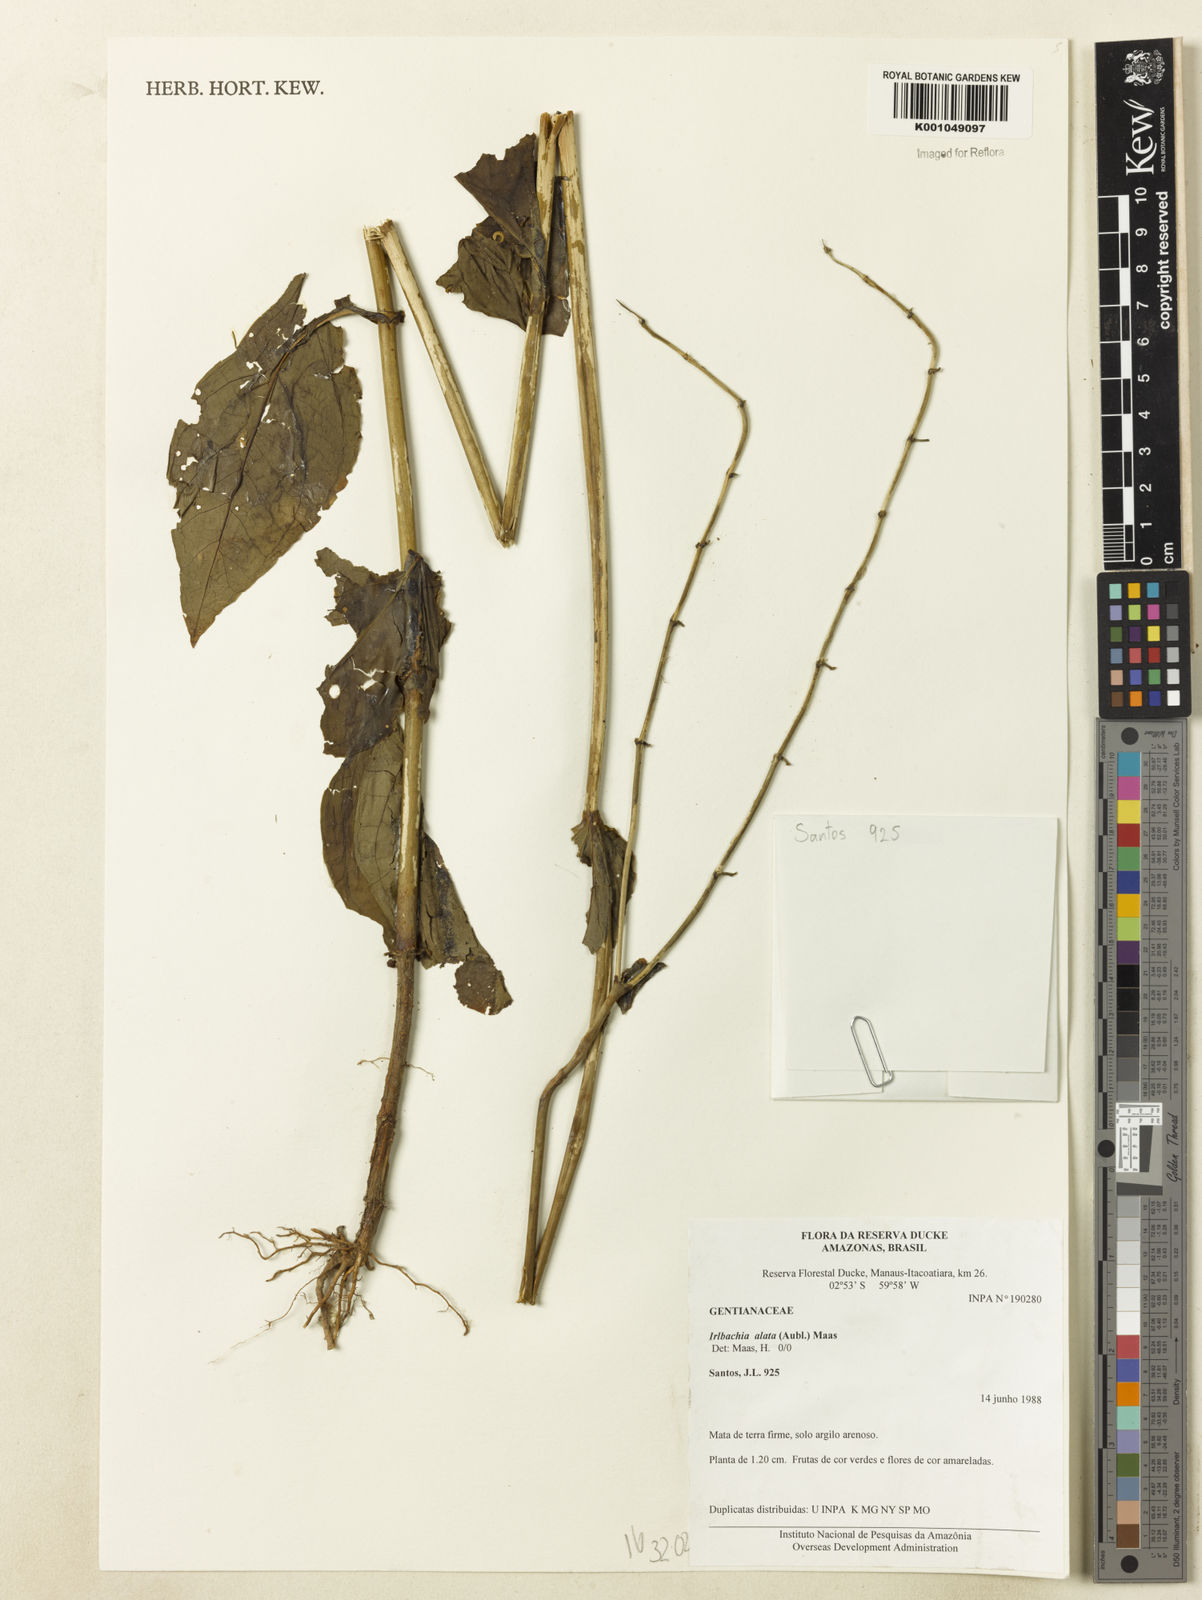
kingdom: Plantae
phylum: Tracheophyta
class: Magnoliopsida
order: Gentianales
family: Gentianaceae
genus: Chelonanthus
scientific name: Chelonanthus alatus
